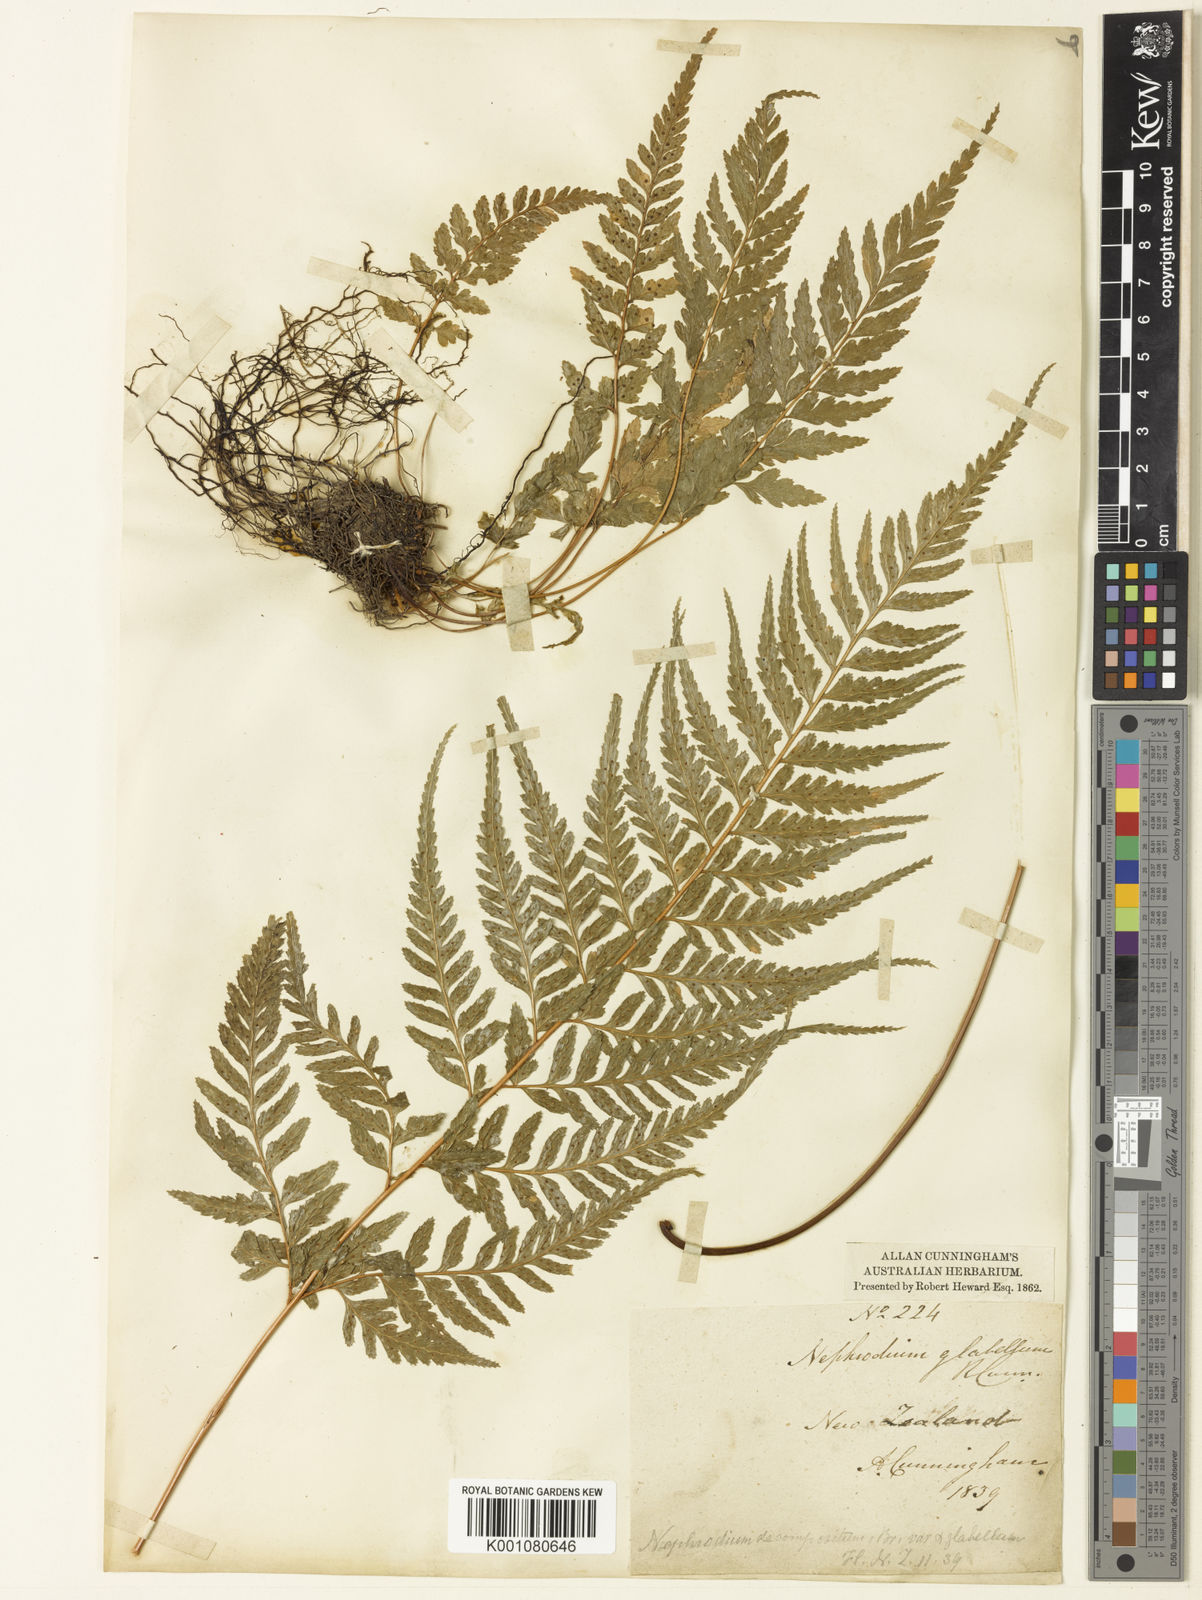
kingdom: Plantae
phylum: Tracheophyta
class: Polypodiopsida
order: Polypodiales
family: Dryopteridaceae
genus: Parapolystichum
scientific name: Parapolystichum glabellum
